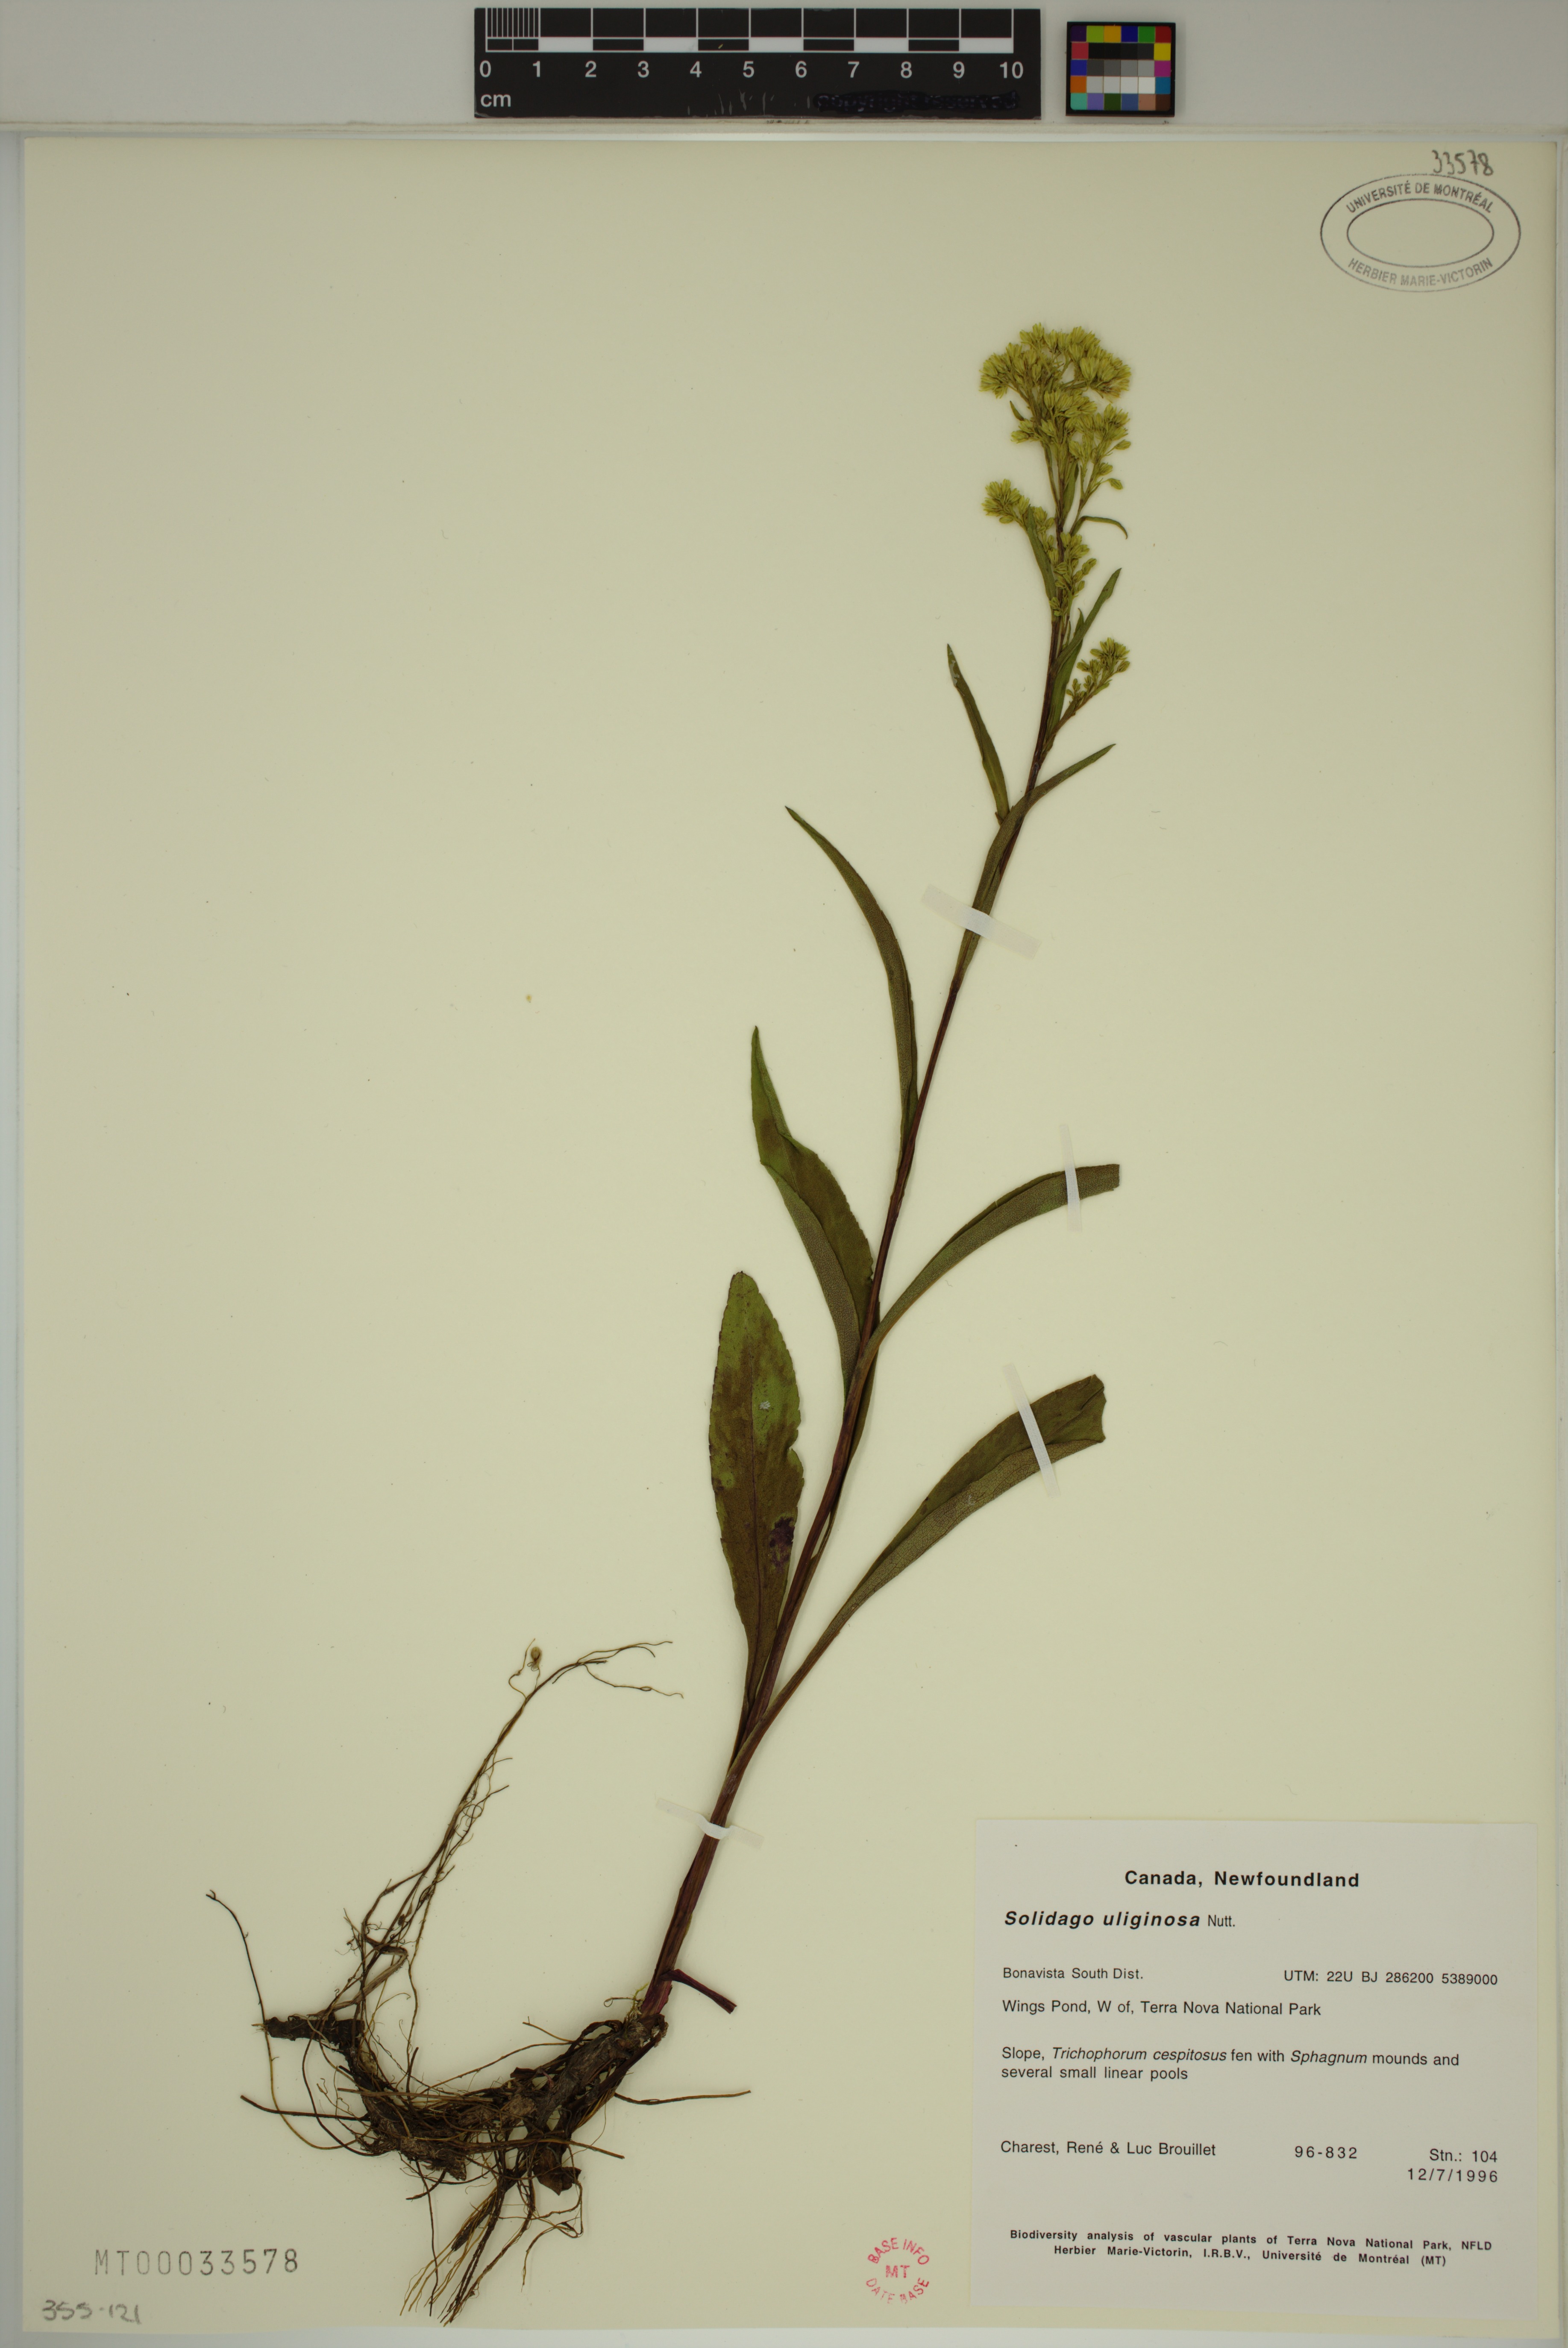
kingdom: Plantae
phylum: Tracheophyta
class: Magnoliopsida
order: Asterales
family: Asteraceae
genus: Solidago
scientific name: Solidago uliginosa
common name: Bog goldenrod
